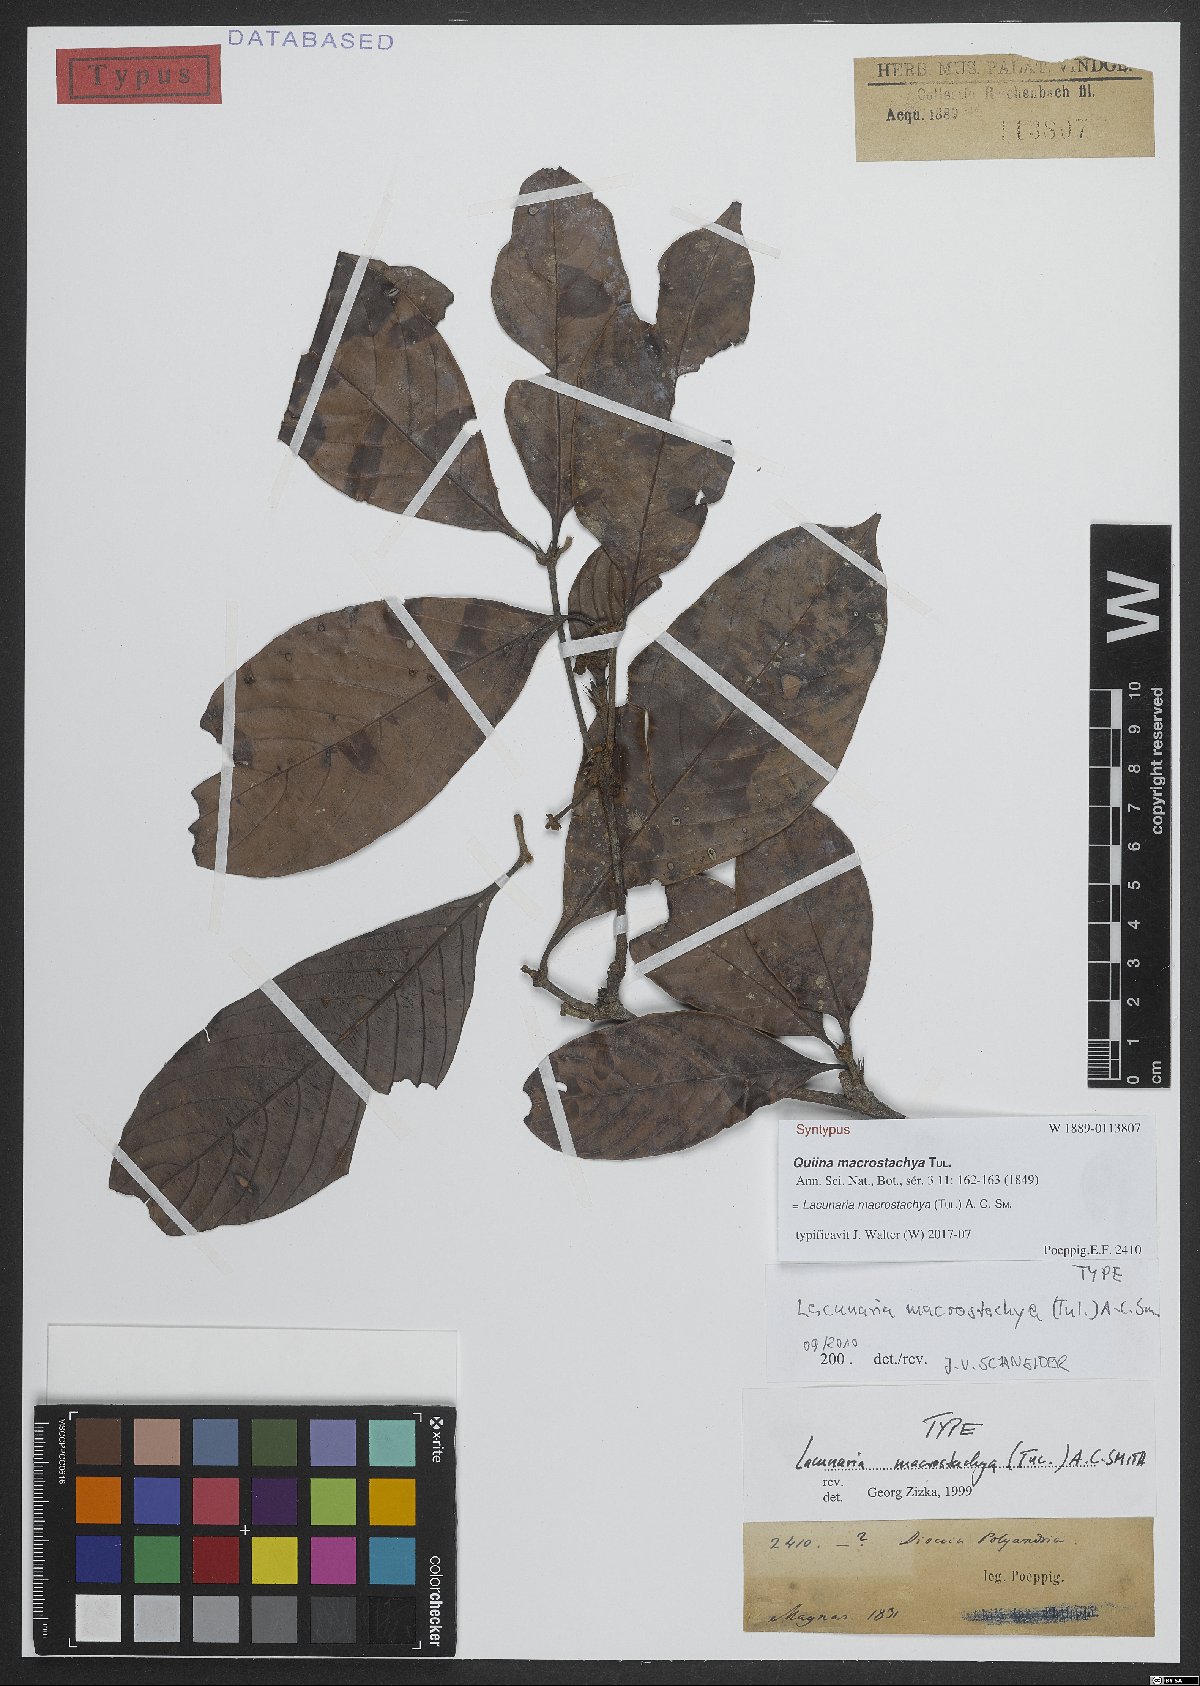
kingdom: Plantae
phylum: Tracheophyta
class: Magnoliopsida
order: Malpighiales
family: Quiinaceae
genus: Lacunaria
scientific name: Lacunaria macrostachya
